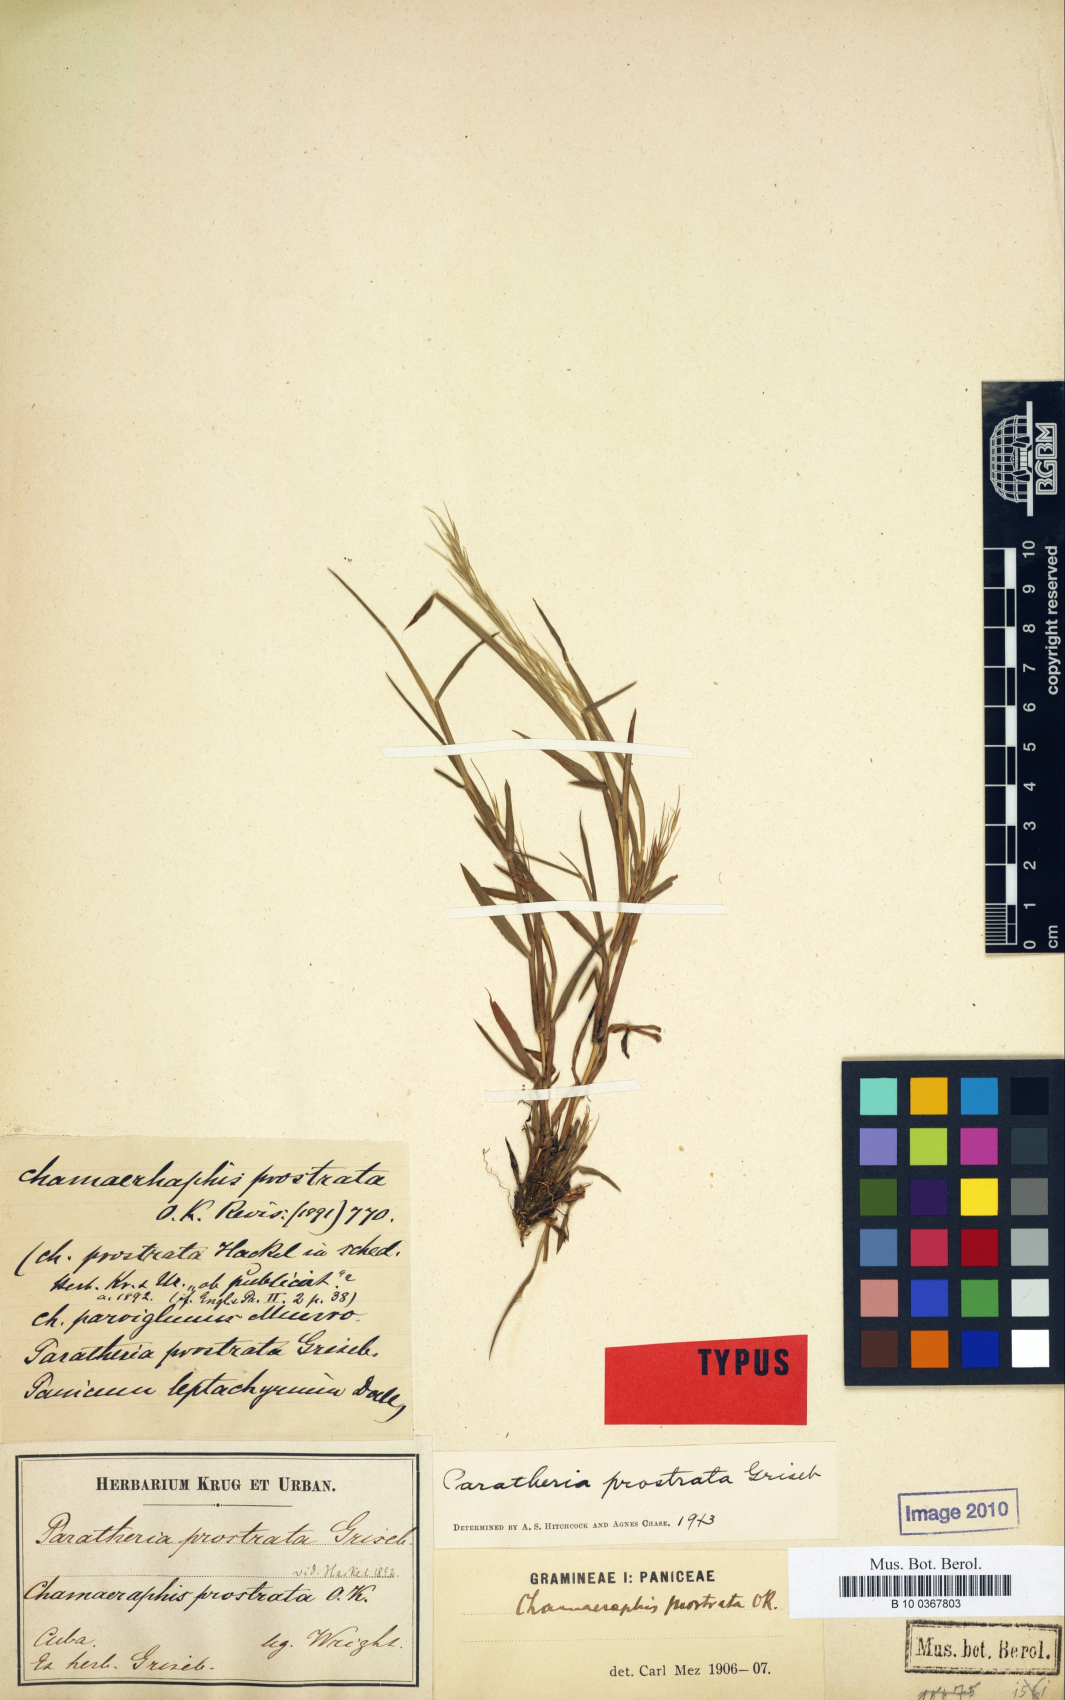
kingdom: Plantae
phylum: Tracheophyta
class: Liliopsida
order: Poales
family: Poaceae
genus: Paratheria
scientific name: Paratheria prostrata
